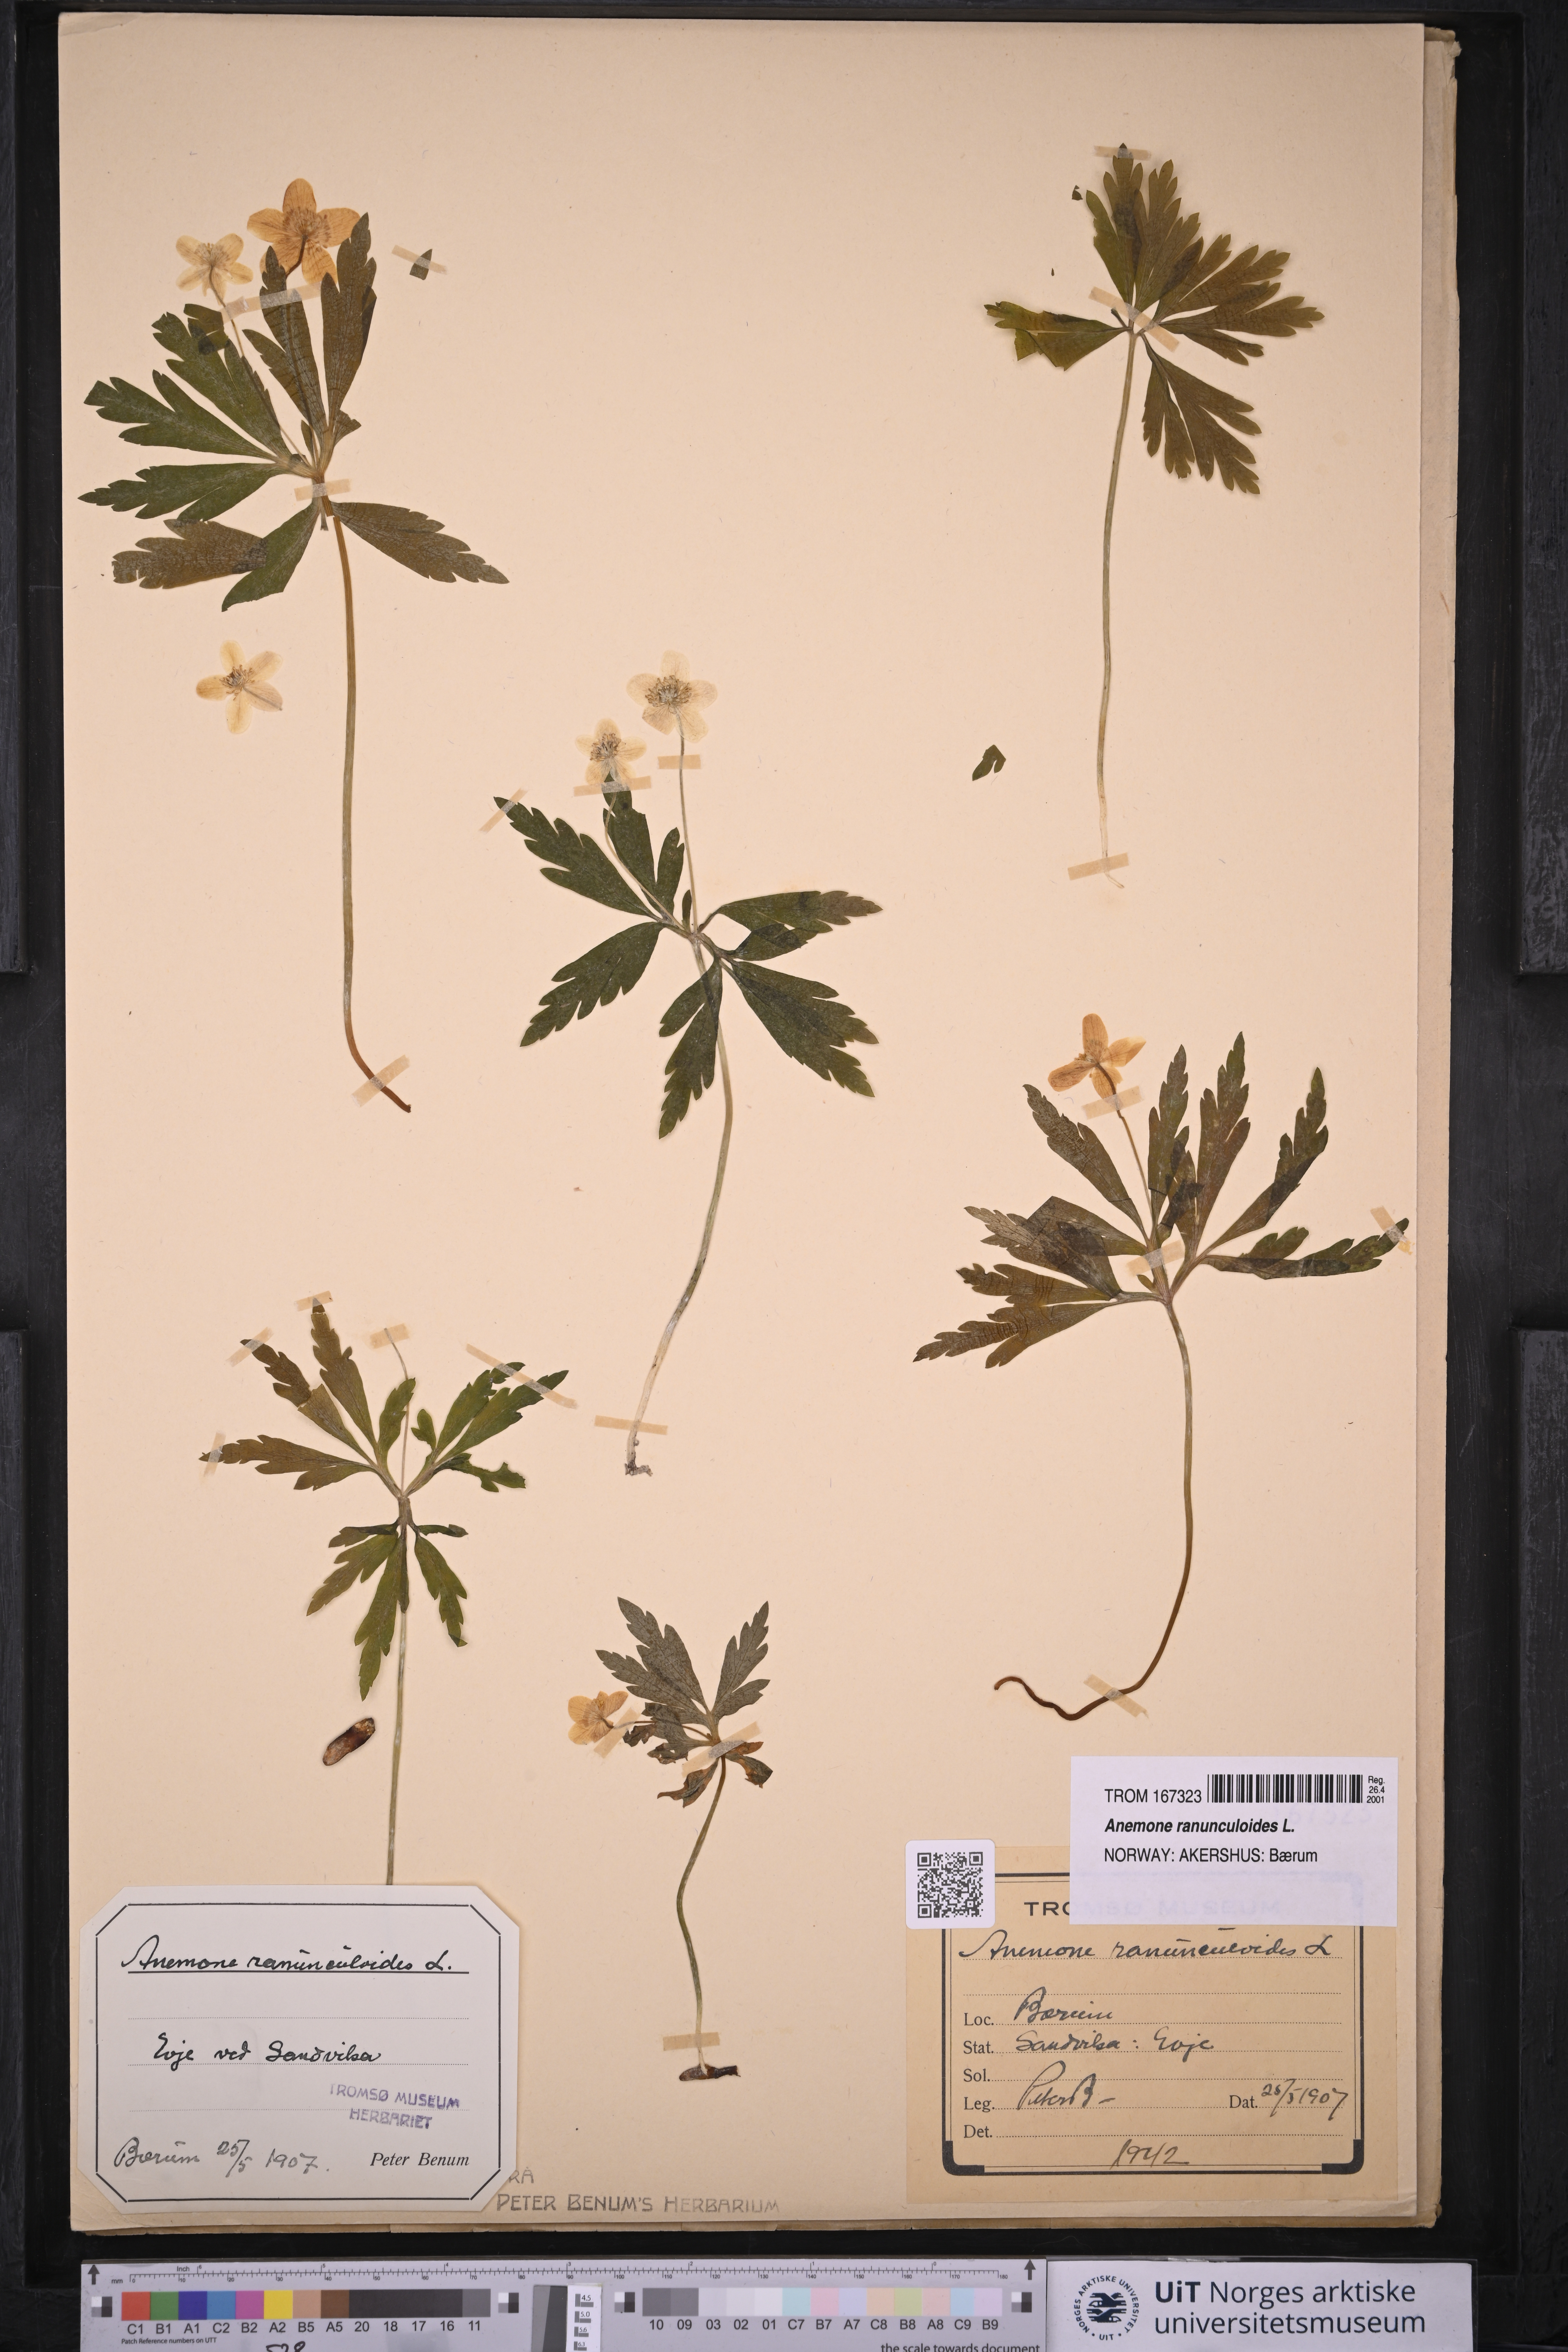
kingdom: Plantae
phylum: Tracheophyta
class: Magnoliopsida
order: Ranunculales
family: Ranunculaceae
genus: Anemone
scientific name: Anemone ranunculoides
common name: Yellow anemone
